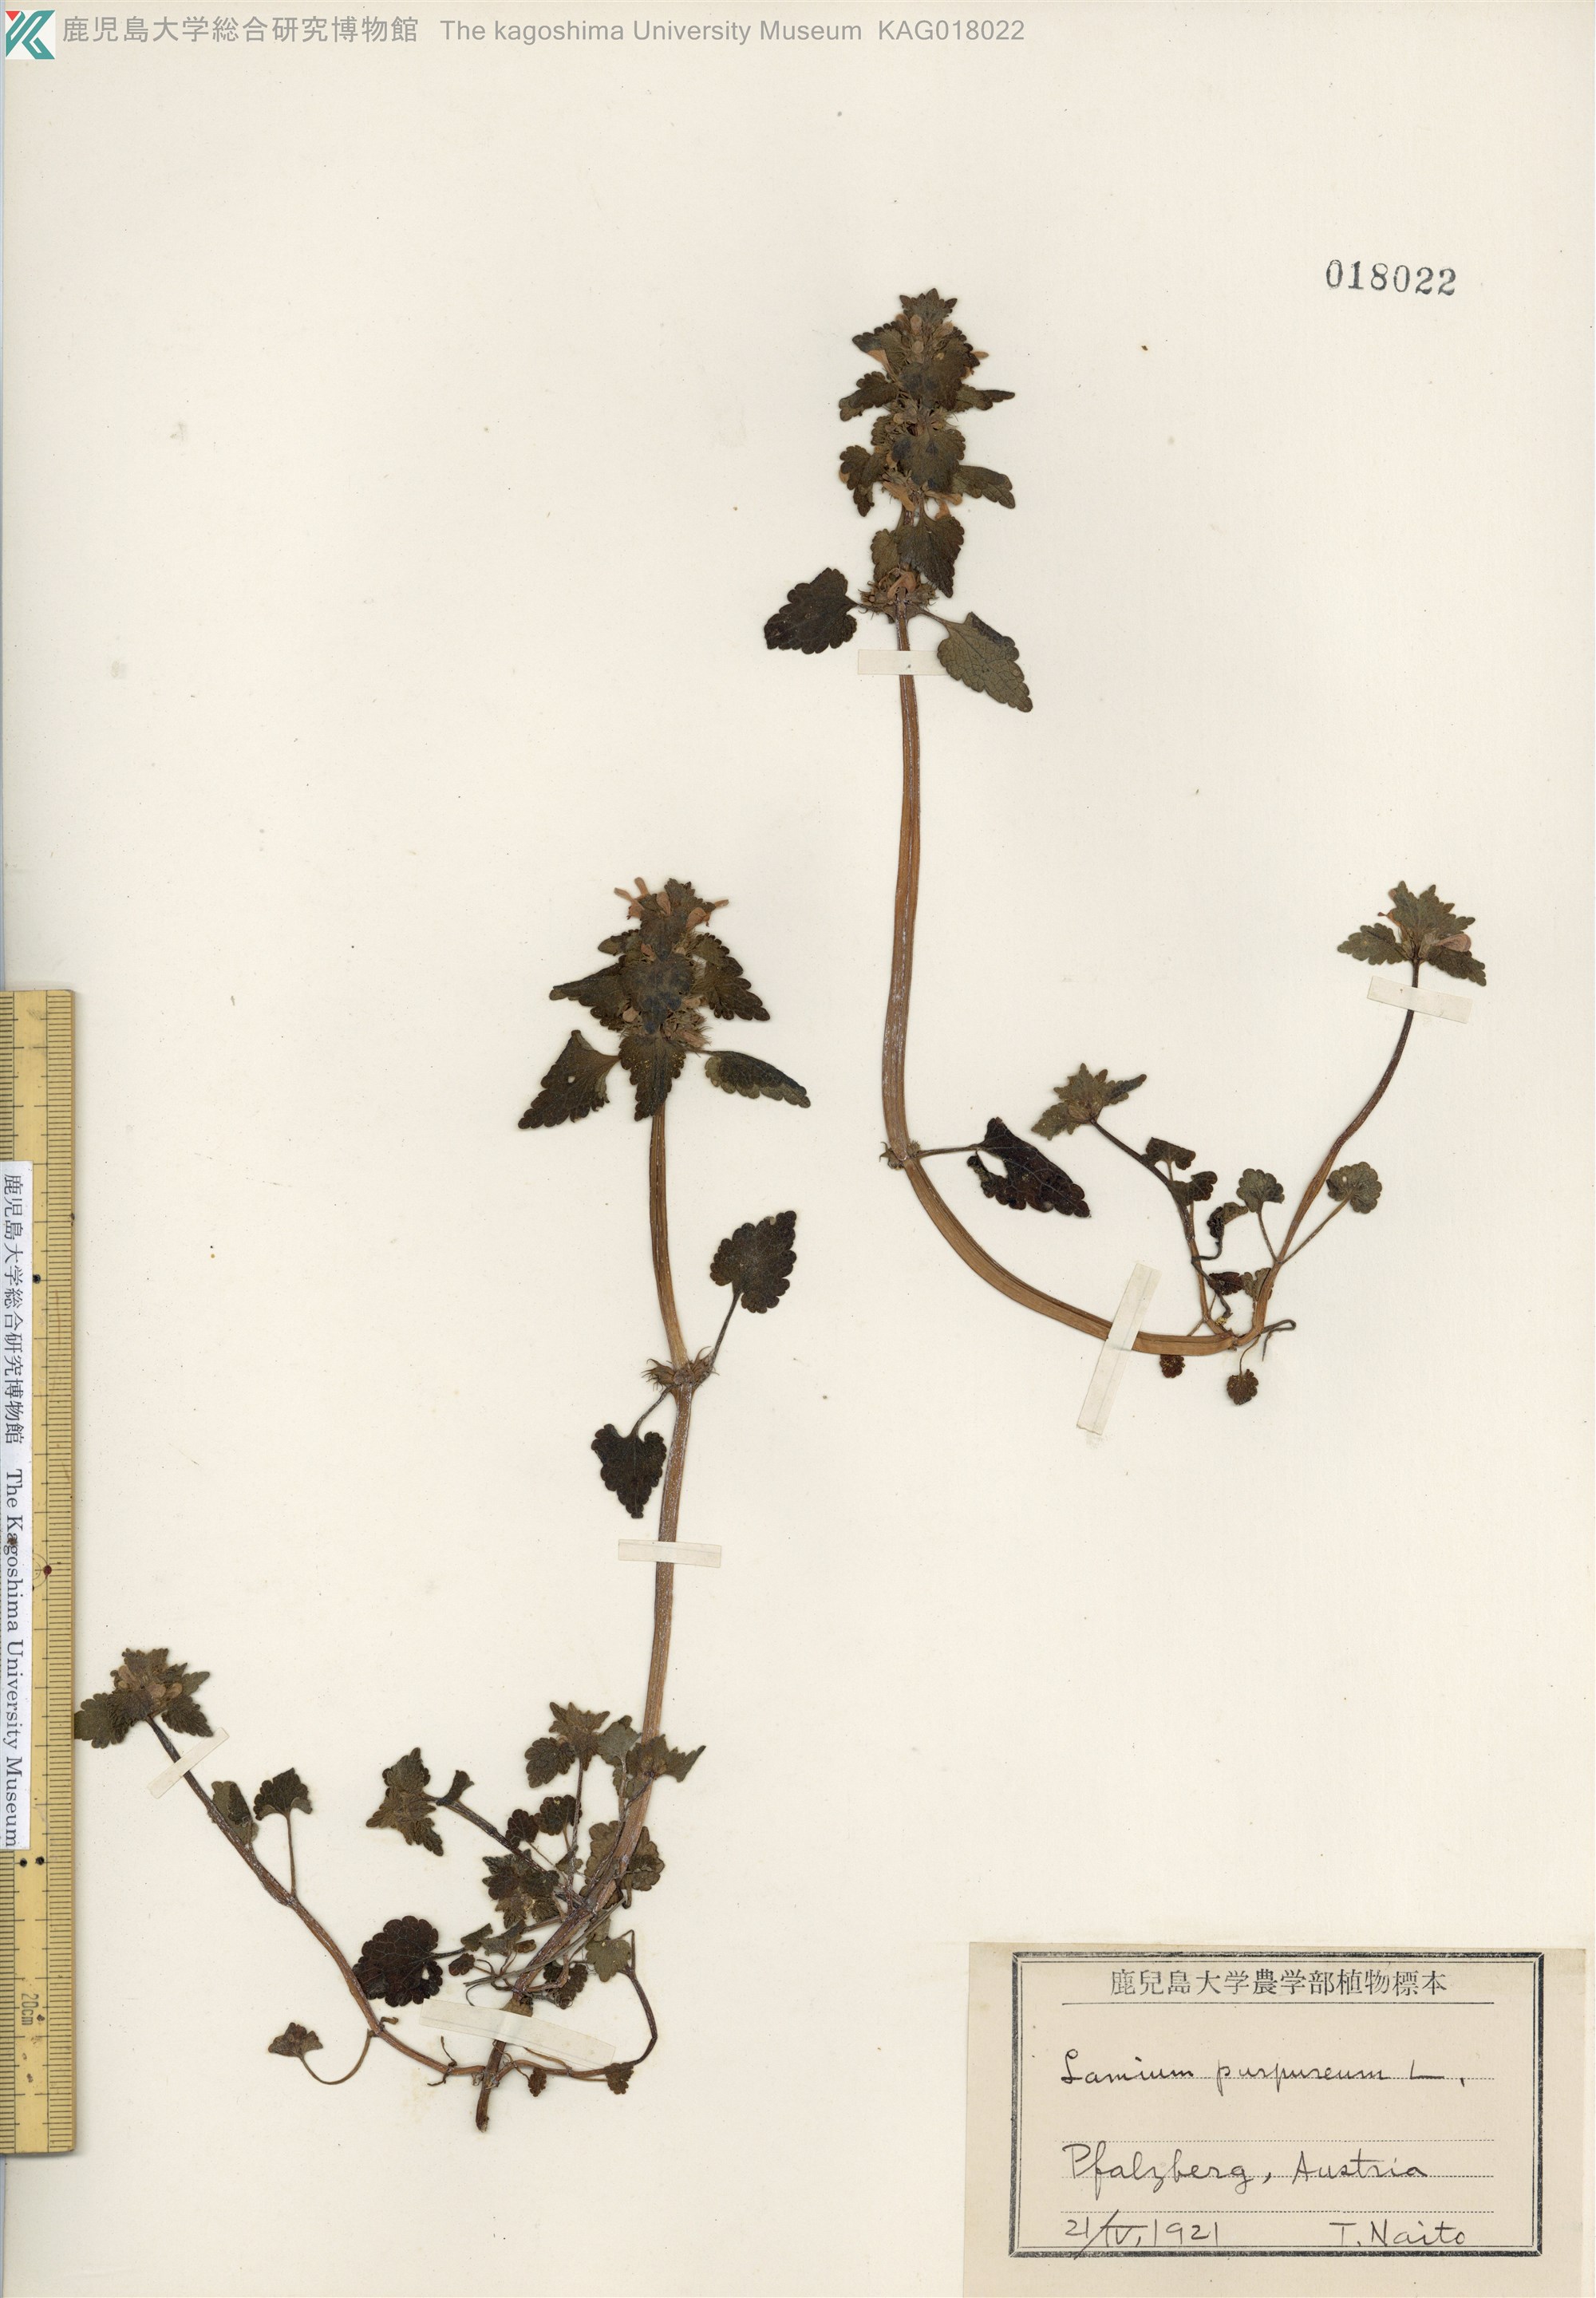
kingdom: Plantae
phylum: Tracheophyta
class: Magnoliopsida
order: Lamiales
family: Lamiaceae
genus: Lamium
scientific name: Lamium purpureum
